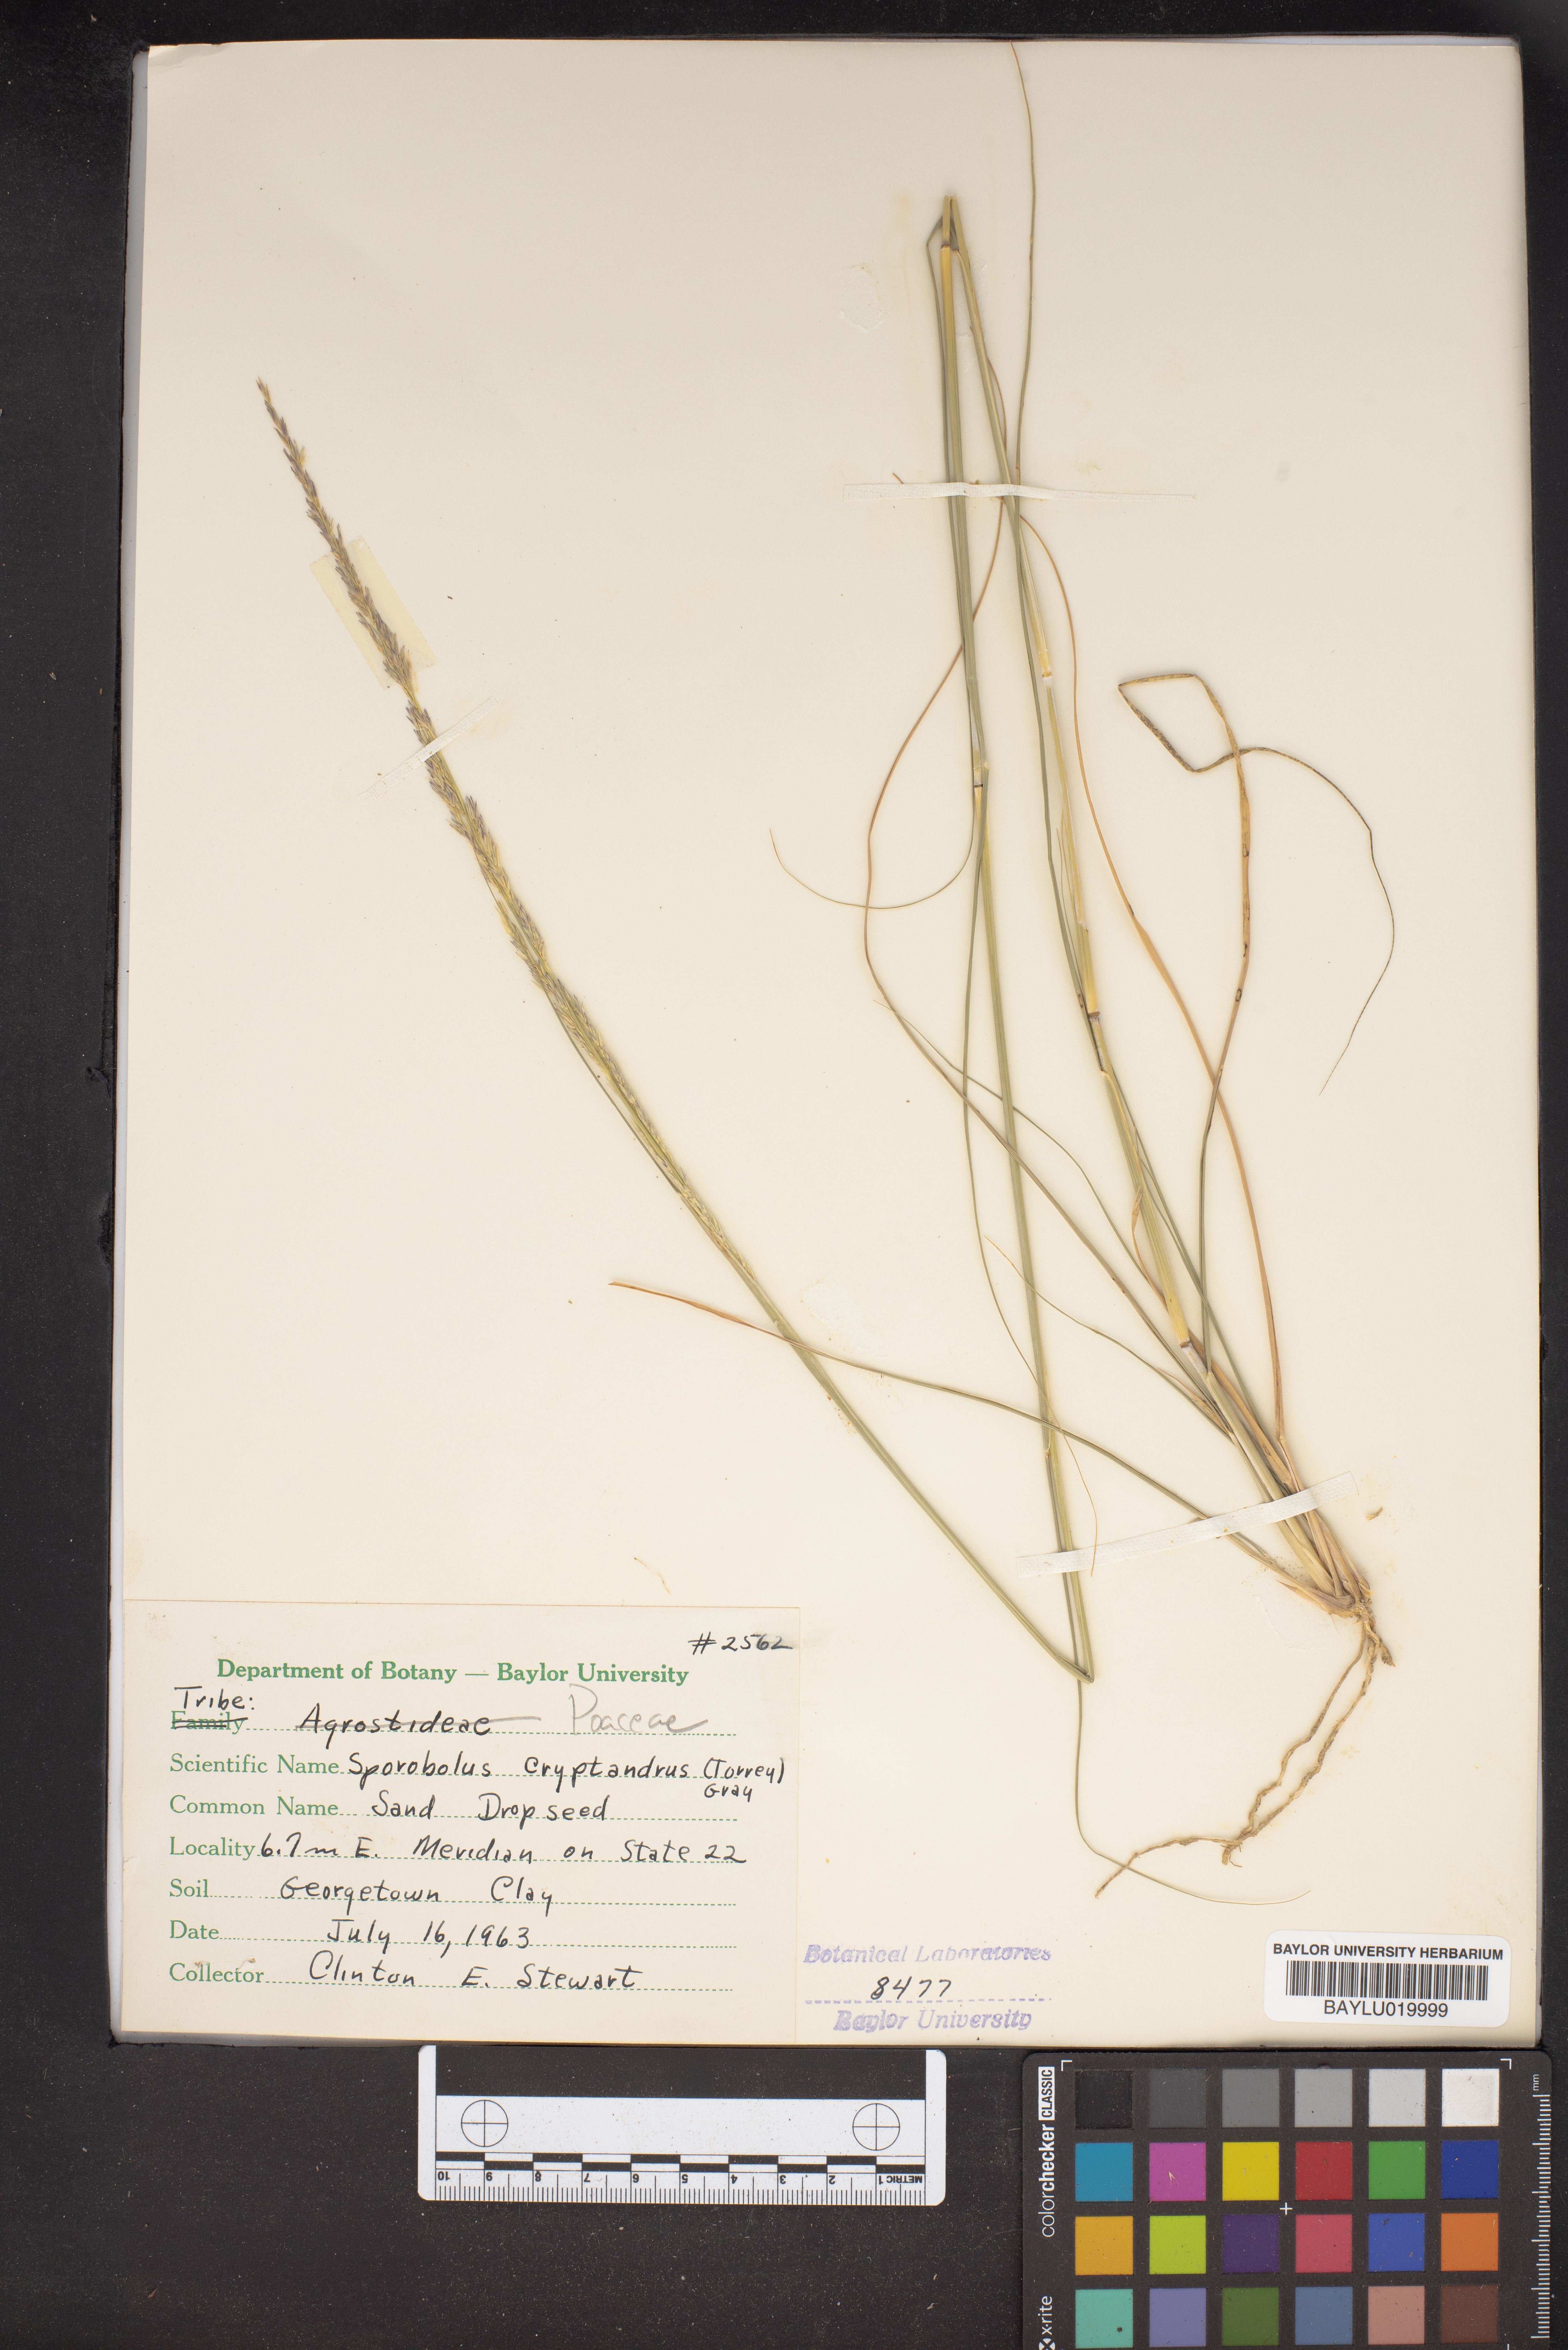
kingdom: Plantae
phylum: Tracheophyta
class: Liliopsida
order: Poales
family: Poaceae
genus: Sporobolus
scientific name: Sporobolus cryptandrus
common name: Sand dropseed
